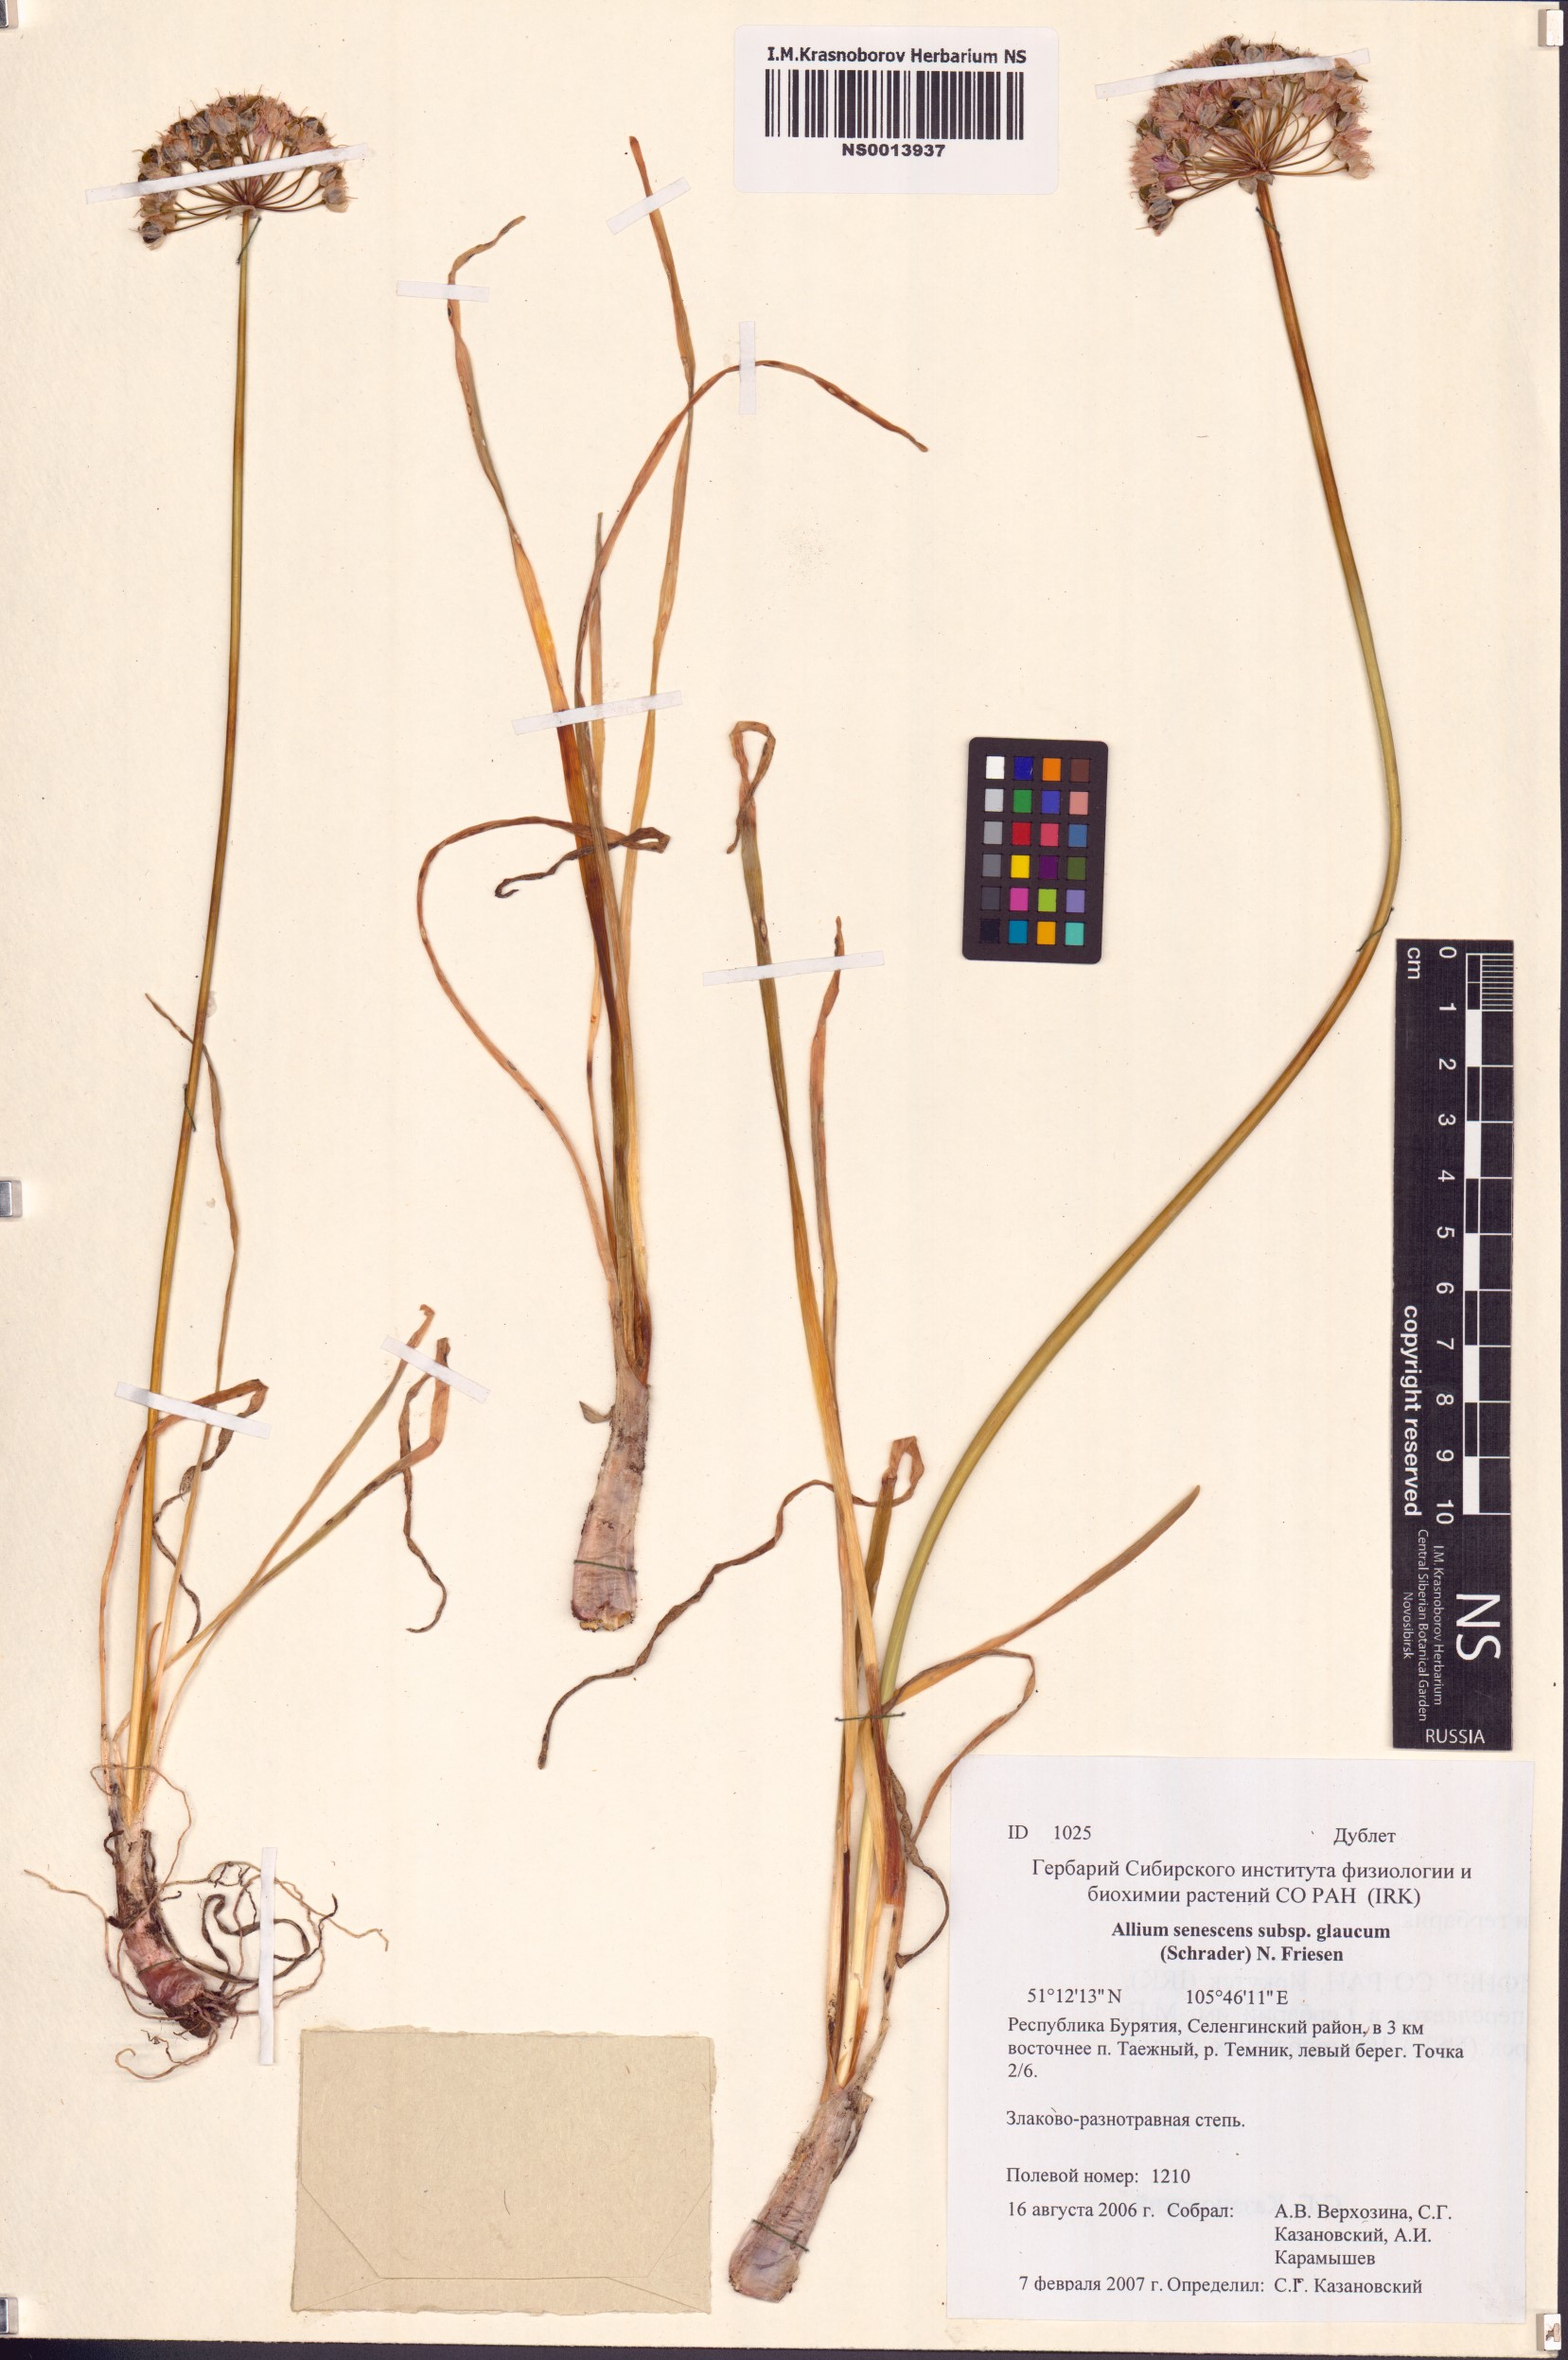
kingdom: Plantae
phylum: Tracheophyta
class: Liliopsida
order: Asparagales
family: Amaryllidaceae
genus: Allium
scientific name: Allium senescens
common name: German garlic
